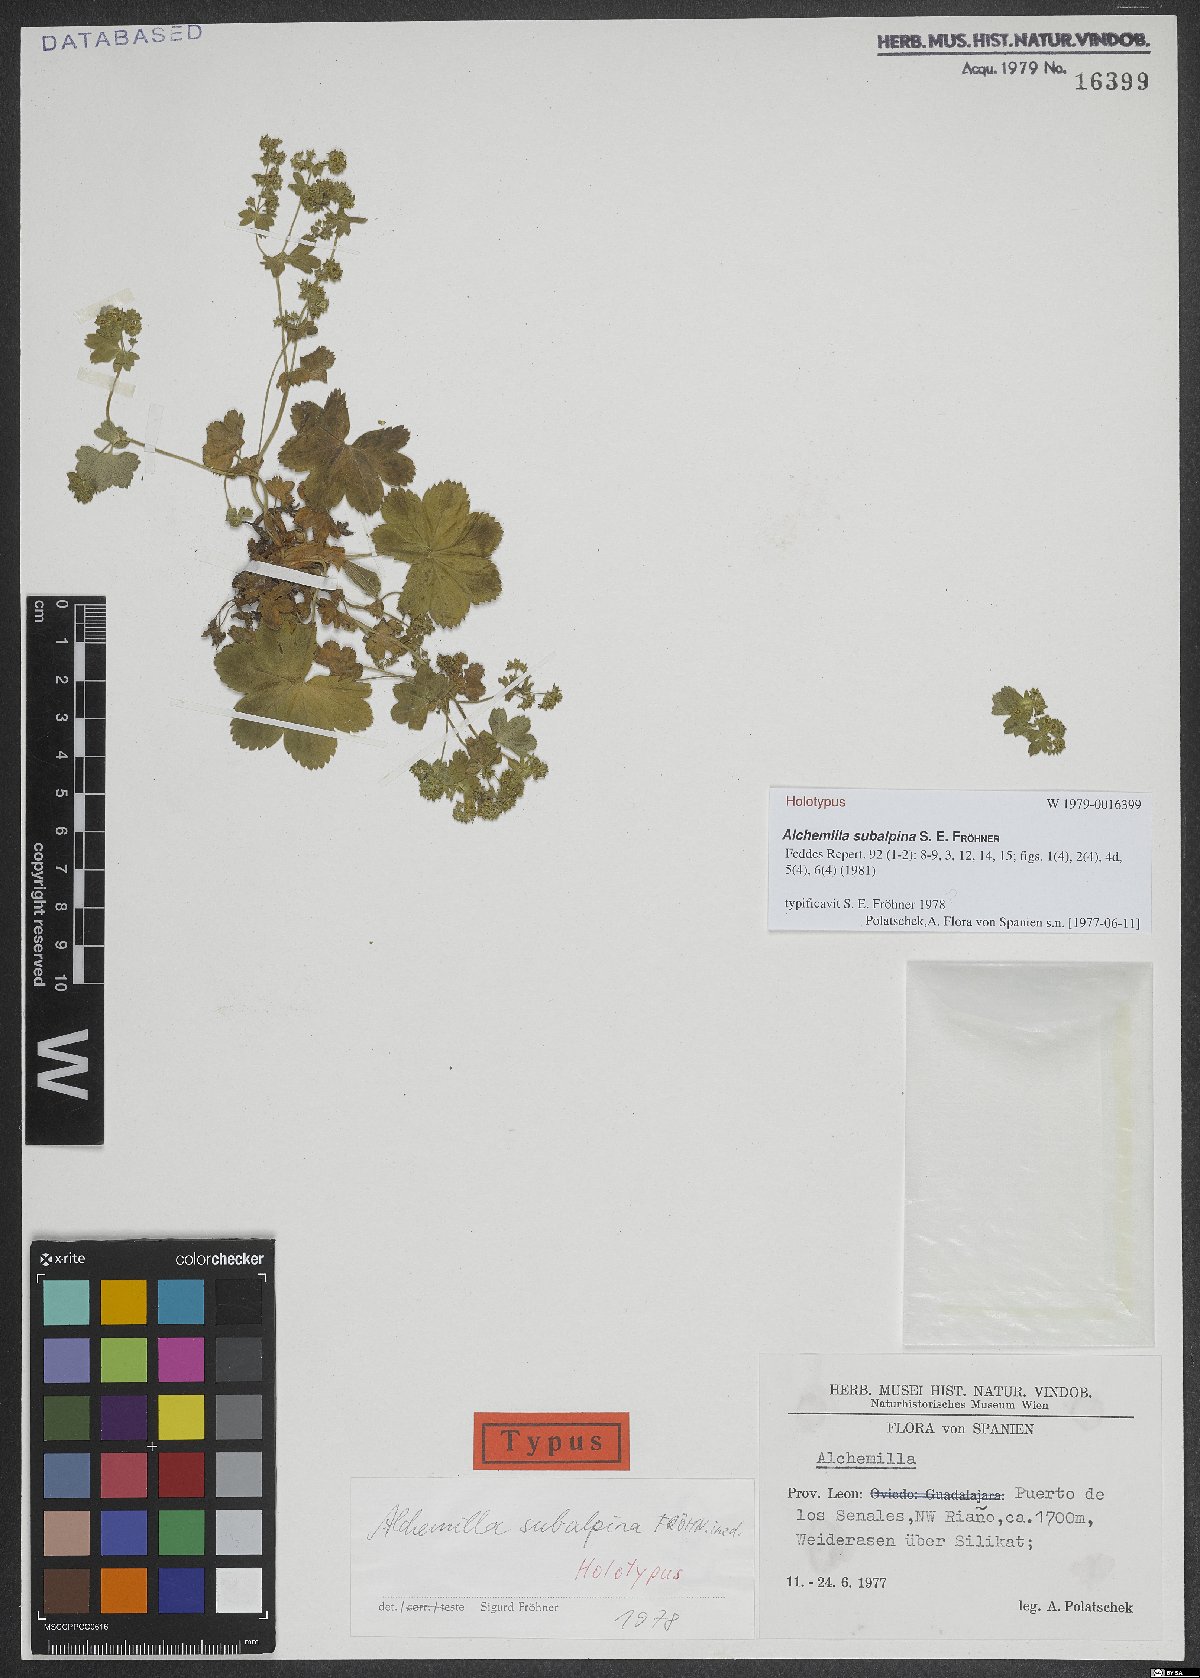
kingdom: Plantae
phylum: Tracheophyta
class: Magnoliopsida
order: Rosales
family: Rosaceae
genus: Alchemilla
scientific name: Alchemilla subalpina
